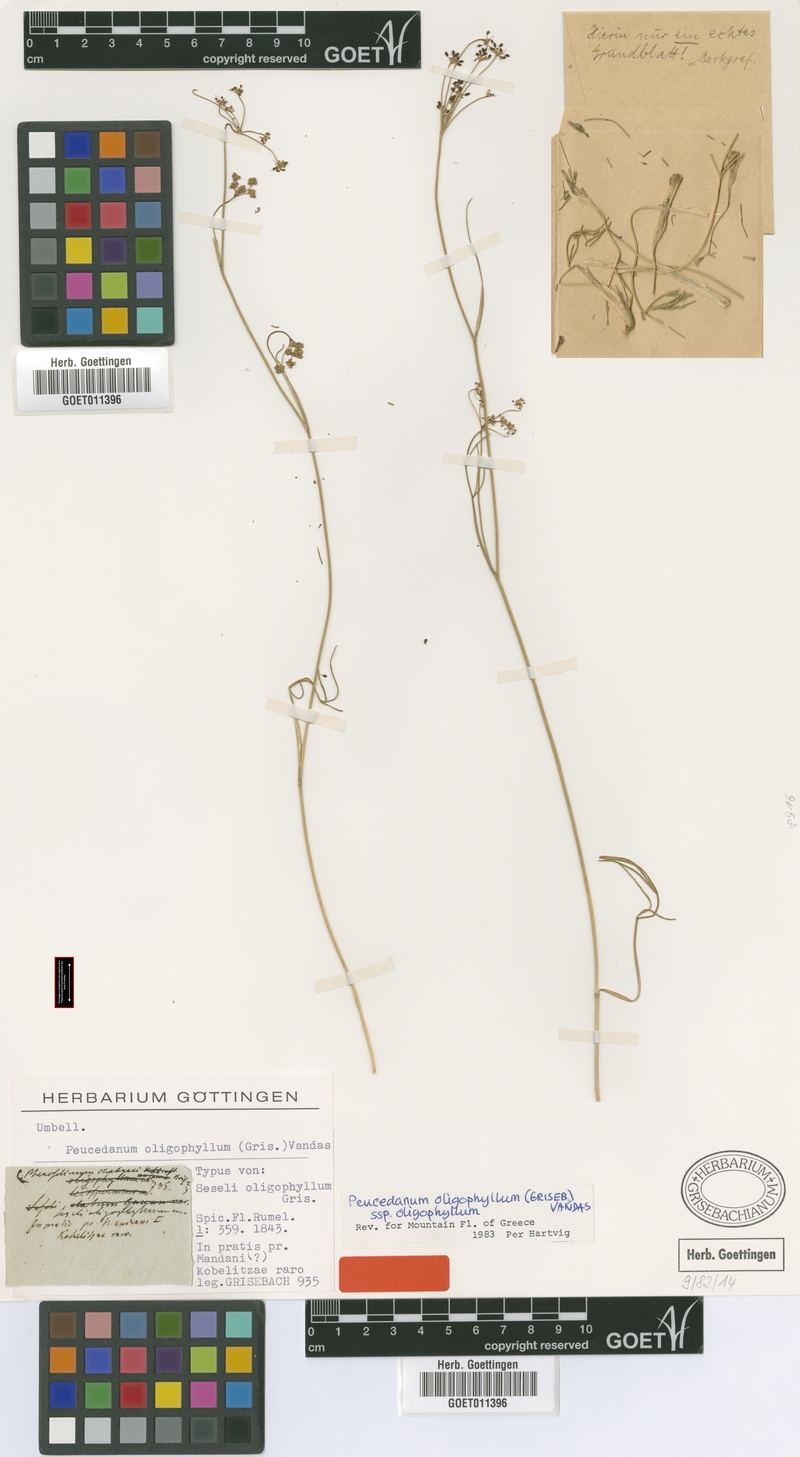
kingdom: Plantae
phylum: Tracheophyta
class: Magnoliopsida
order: Apiales
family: Apiaceae
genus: Dichoropetalum
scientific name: Dichoropetalum oligophyllum
